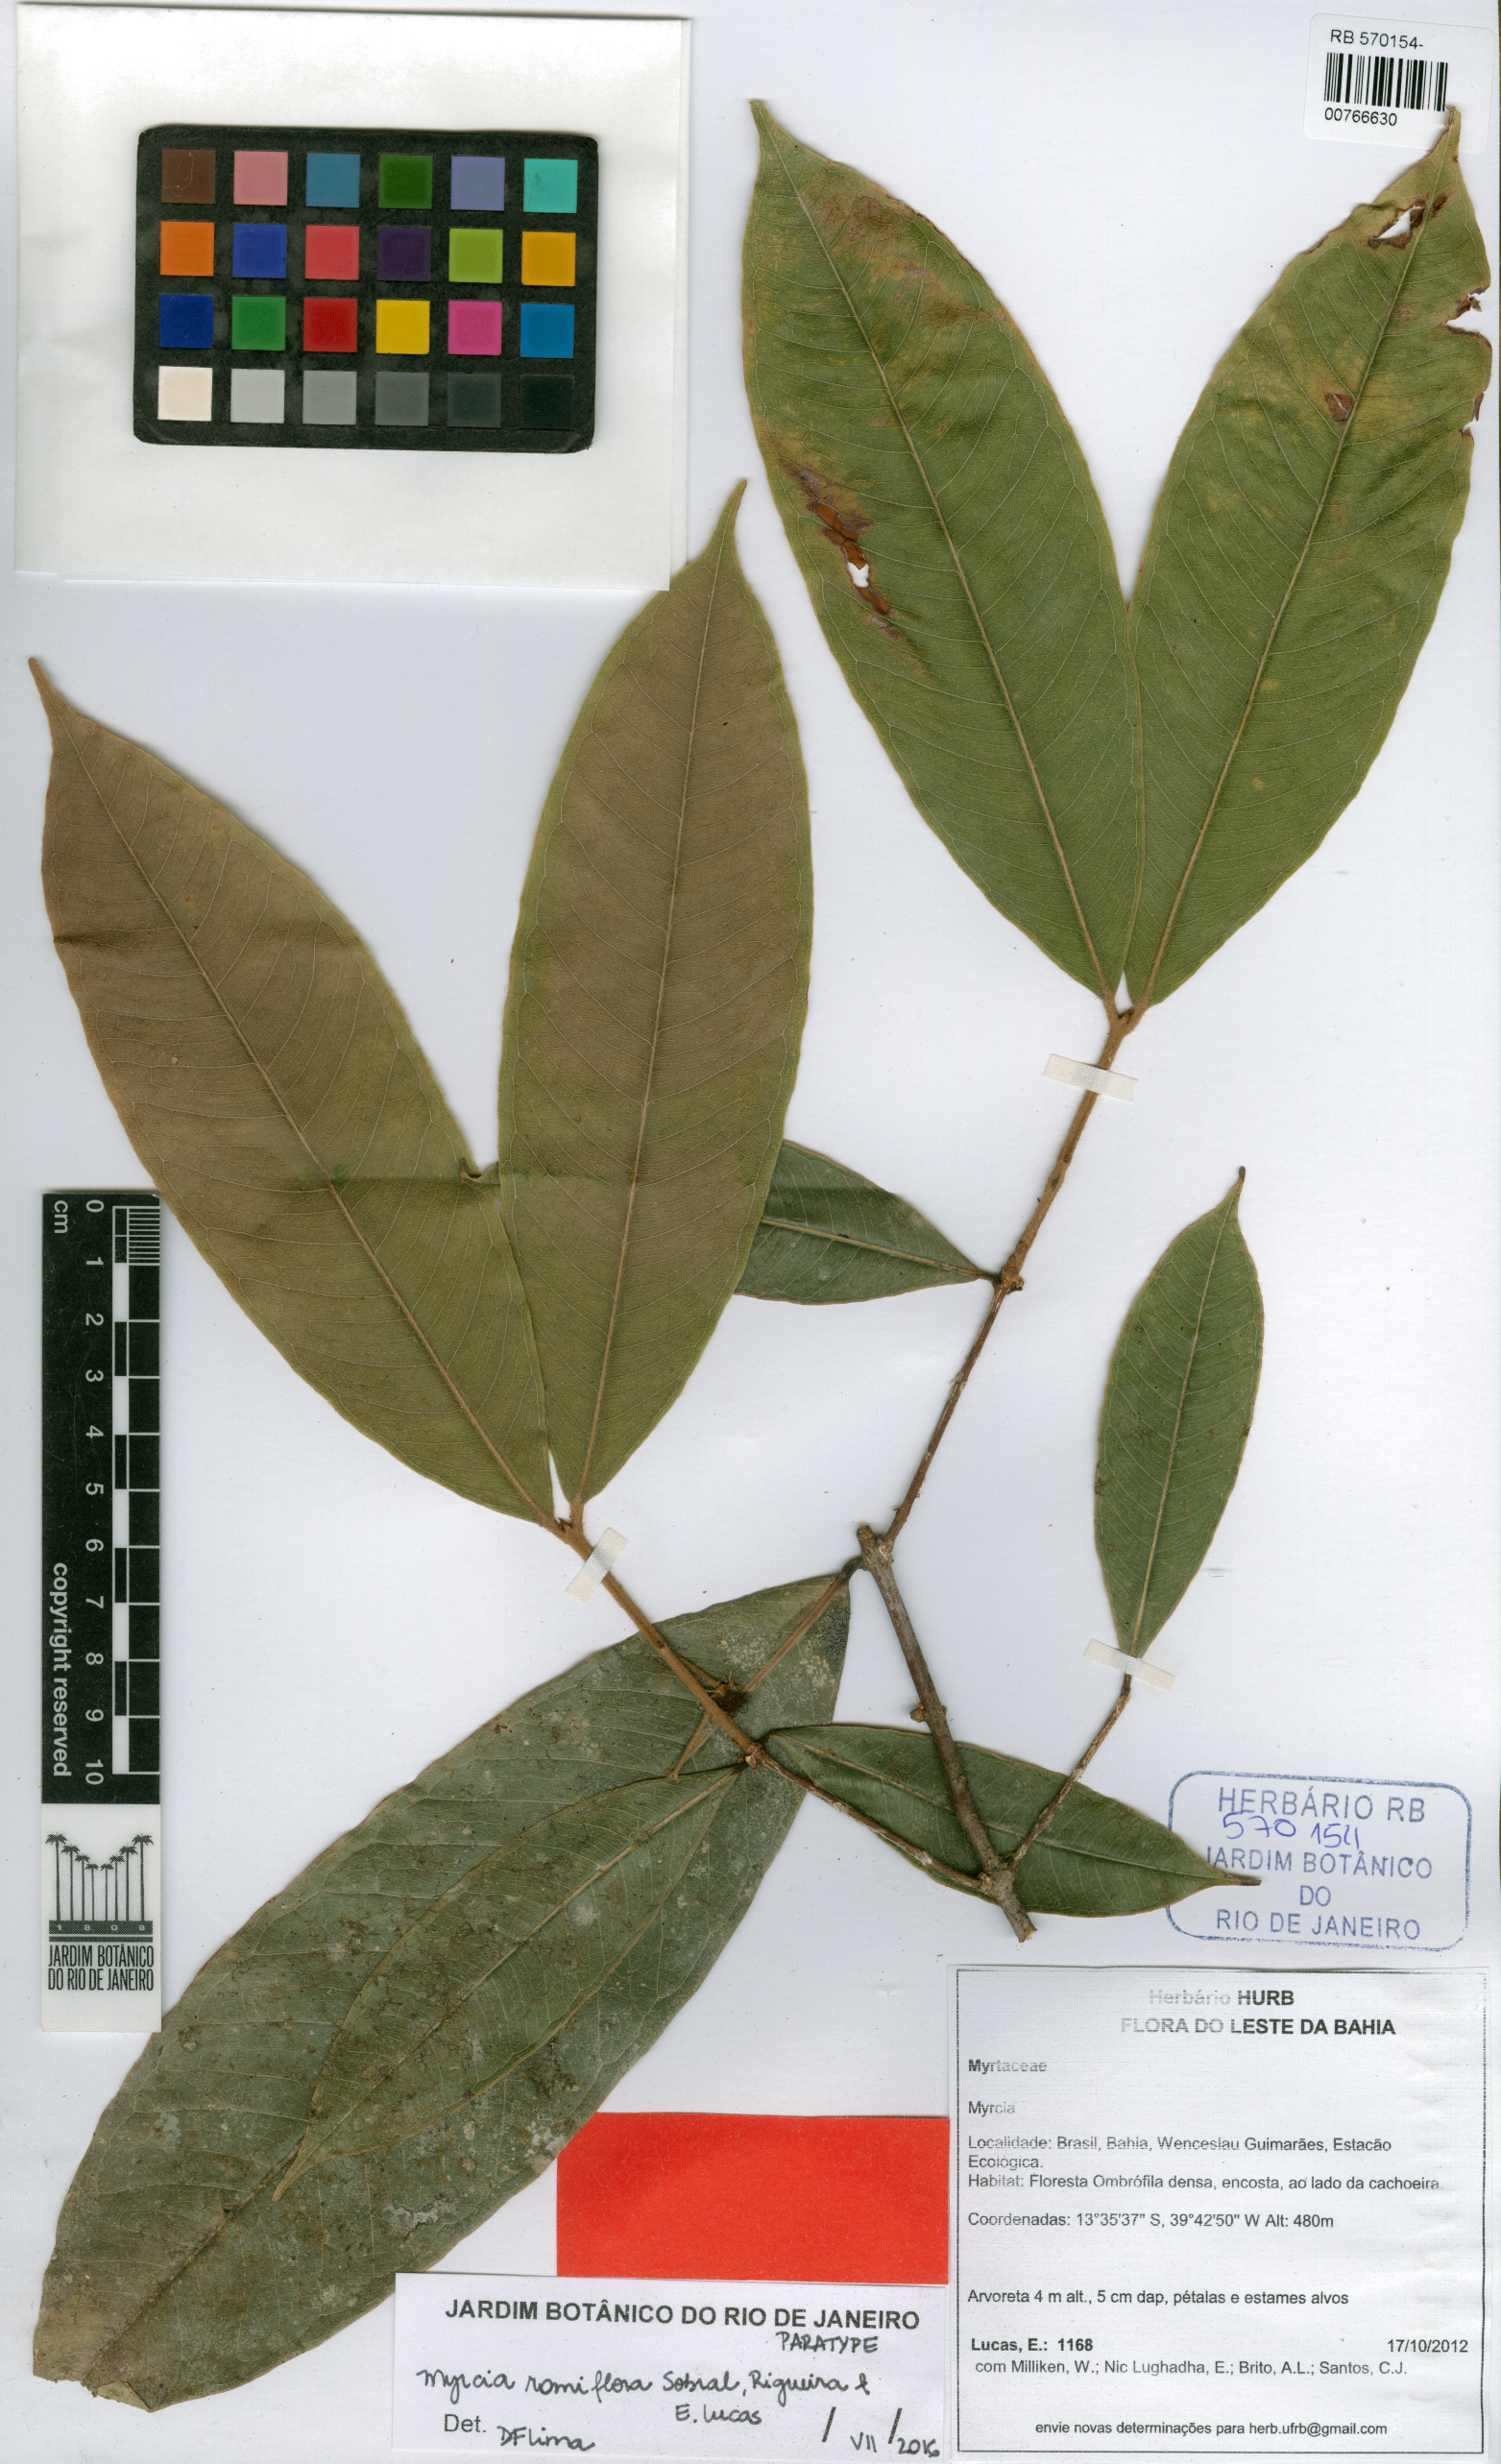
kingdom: Plantae
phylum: Tracheophyta
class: Magnoliopsida
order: Myrtales
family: Myrtaceae
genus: Myrcia
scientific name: Myrcia ramiflora
